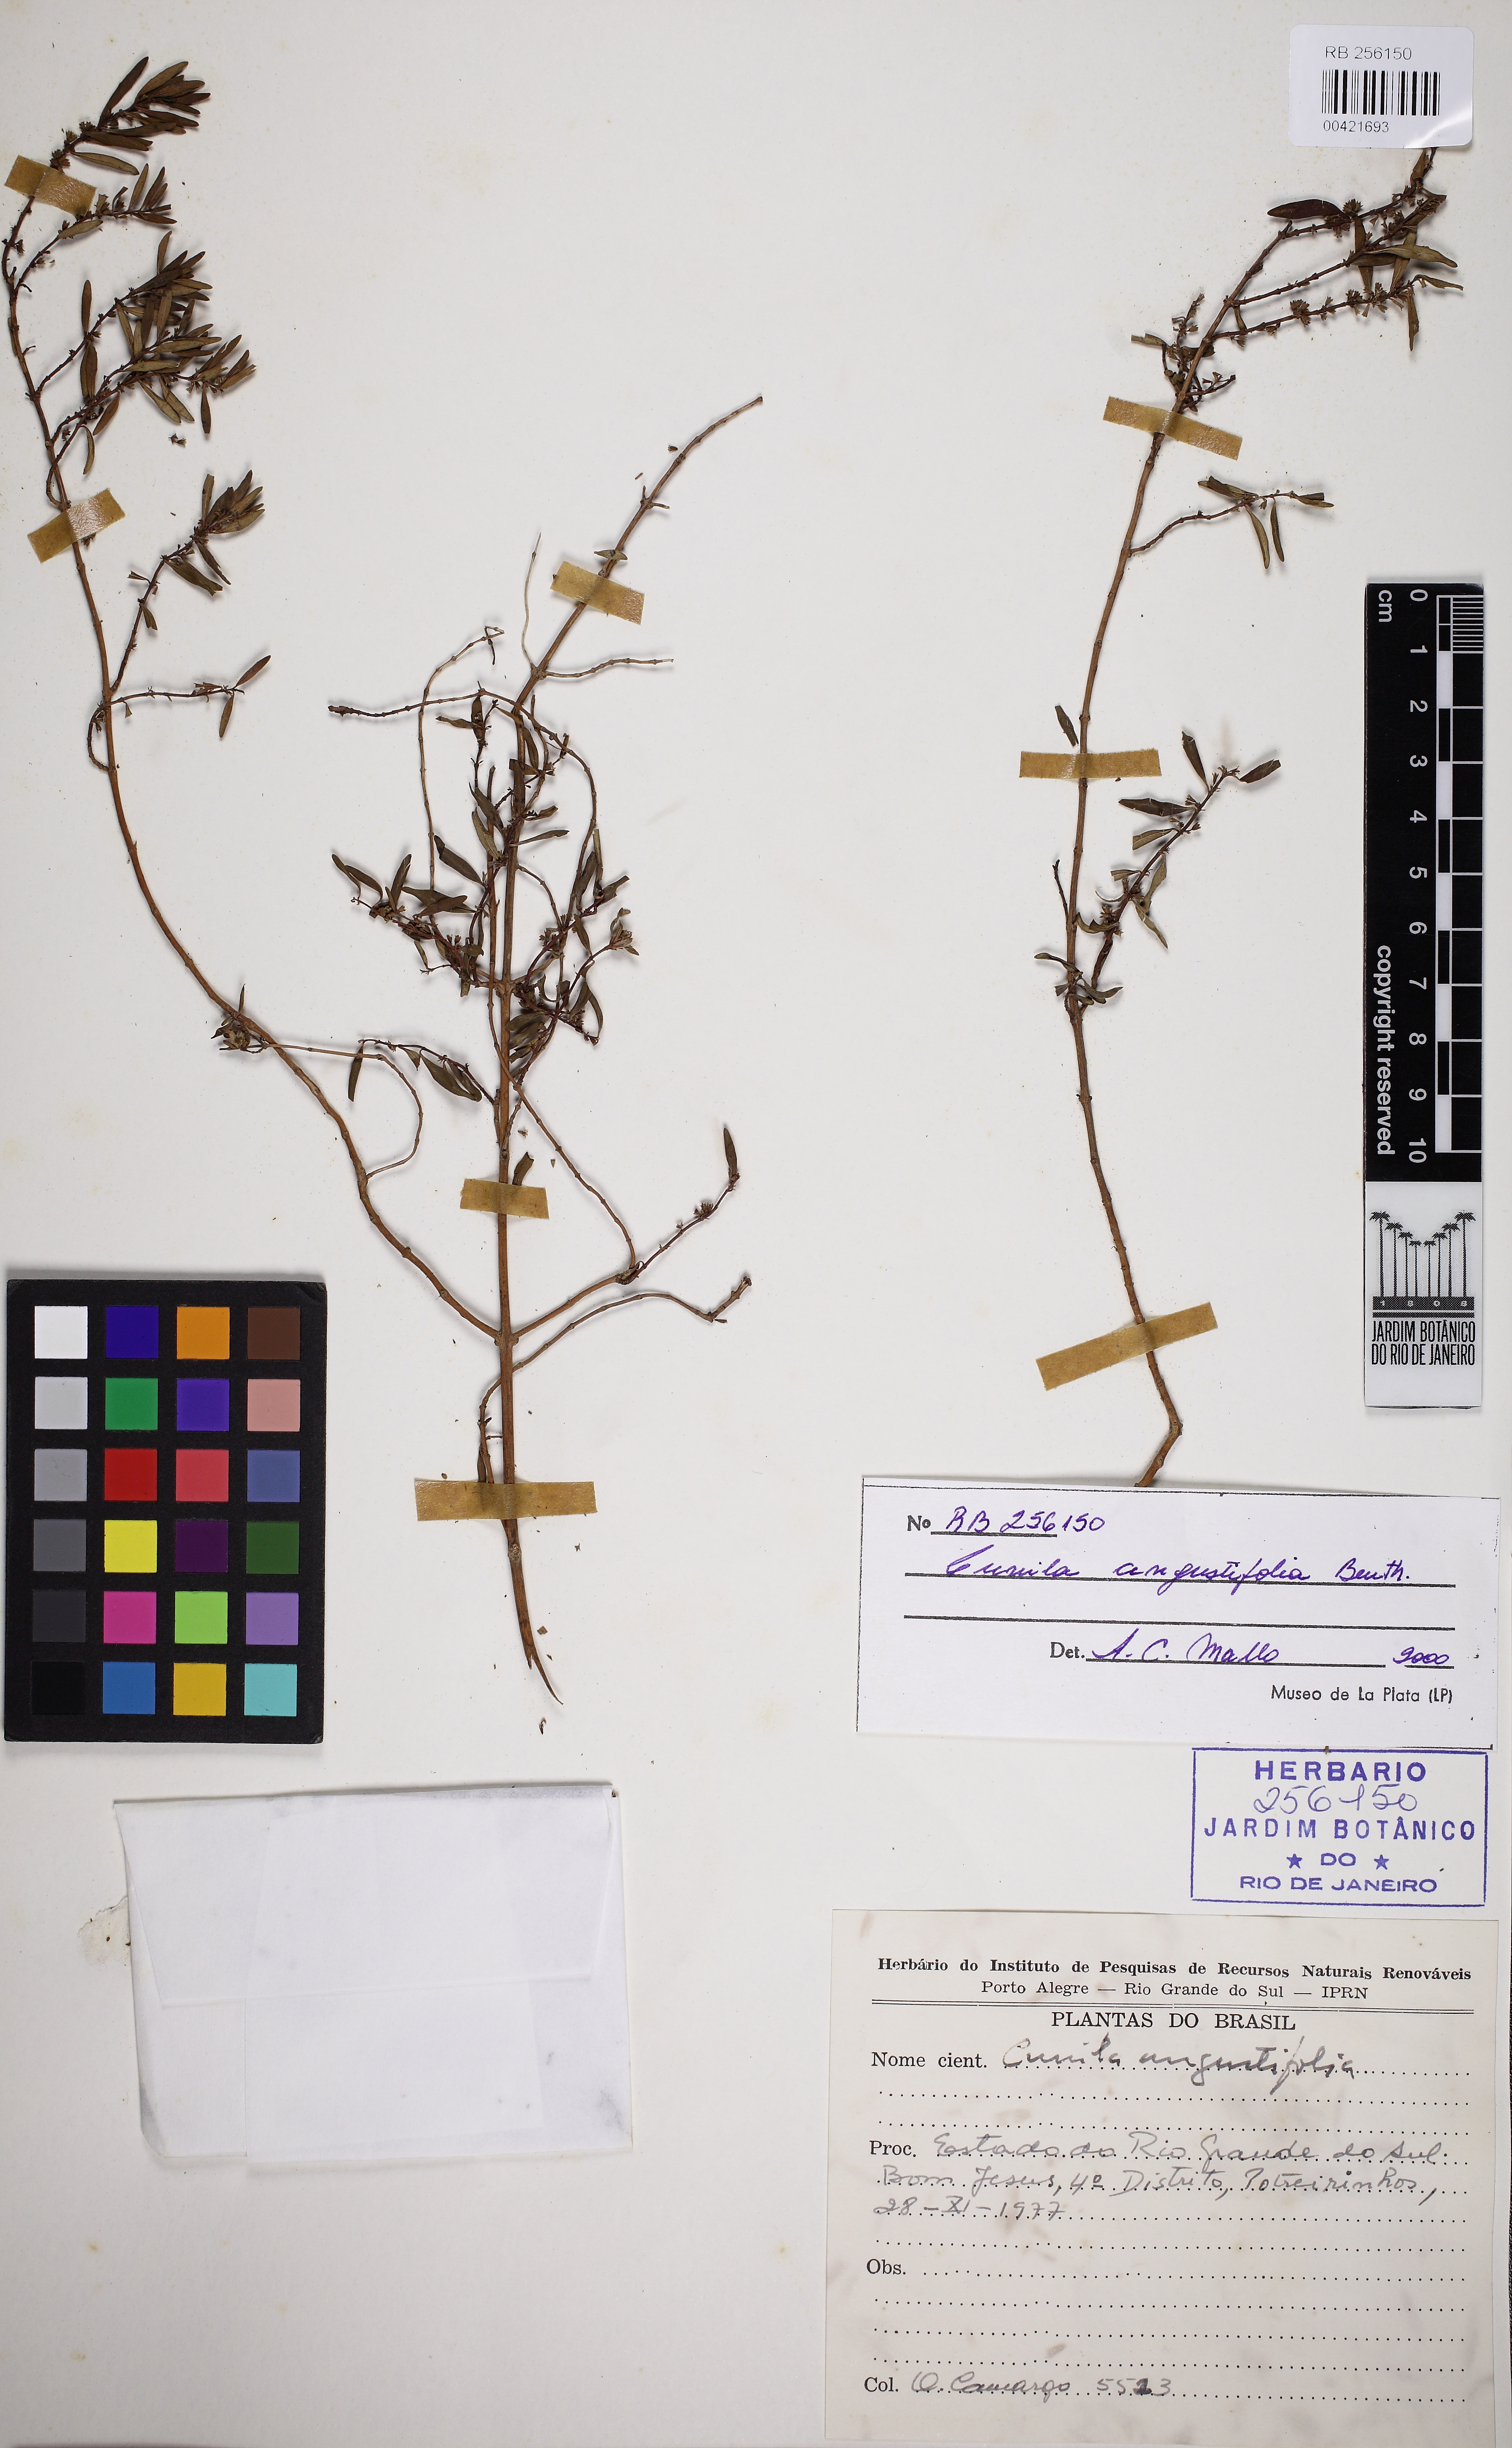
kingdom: Plantae
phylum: Tracheophyta
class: Magnoliopsida
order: Lamiales
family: Lamiaceae
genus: Cunila
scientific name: Cunila angustifolia
